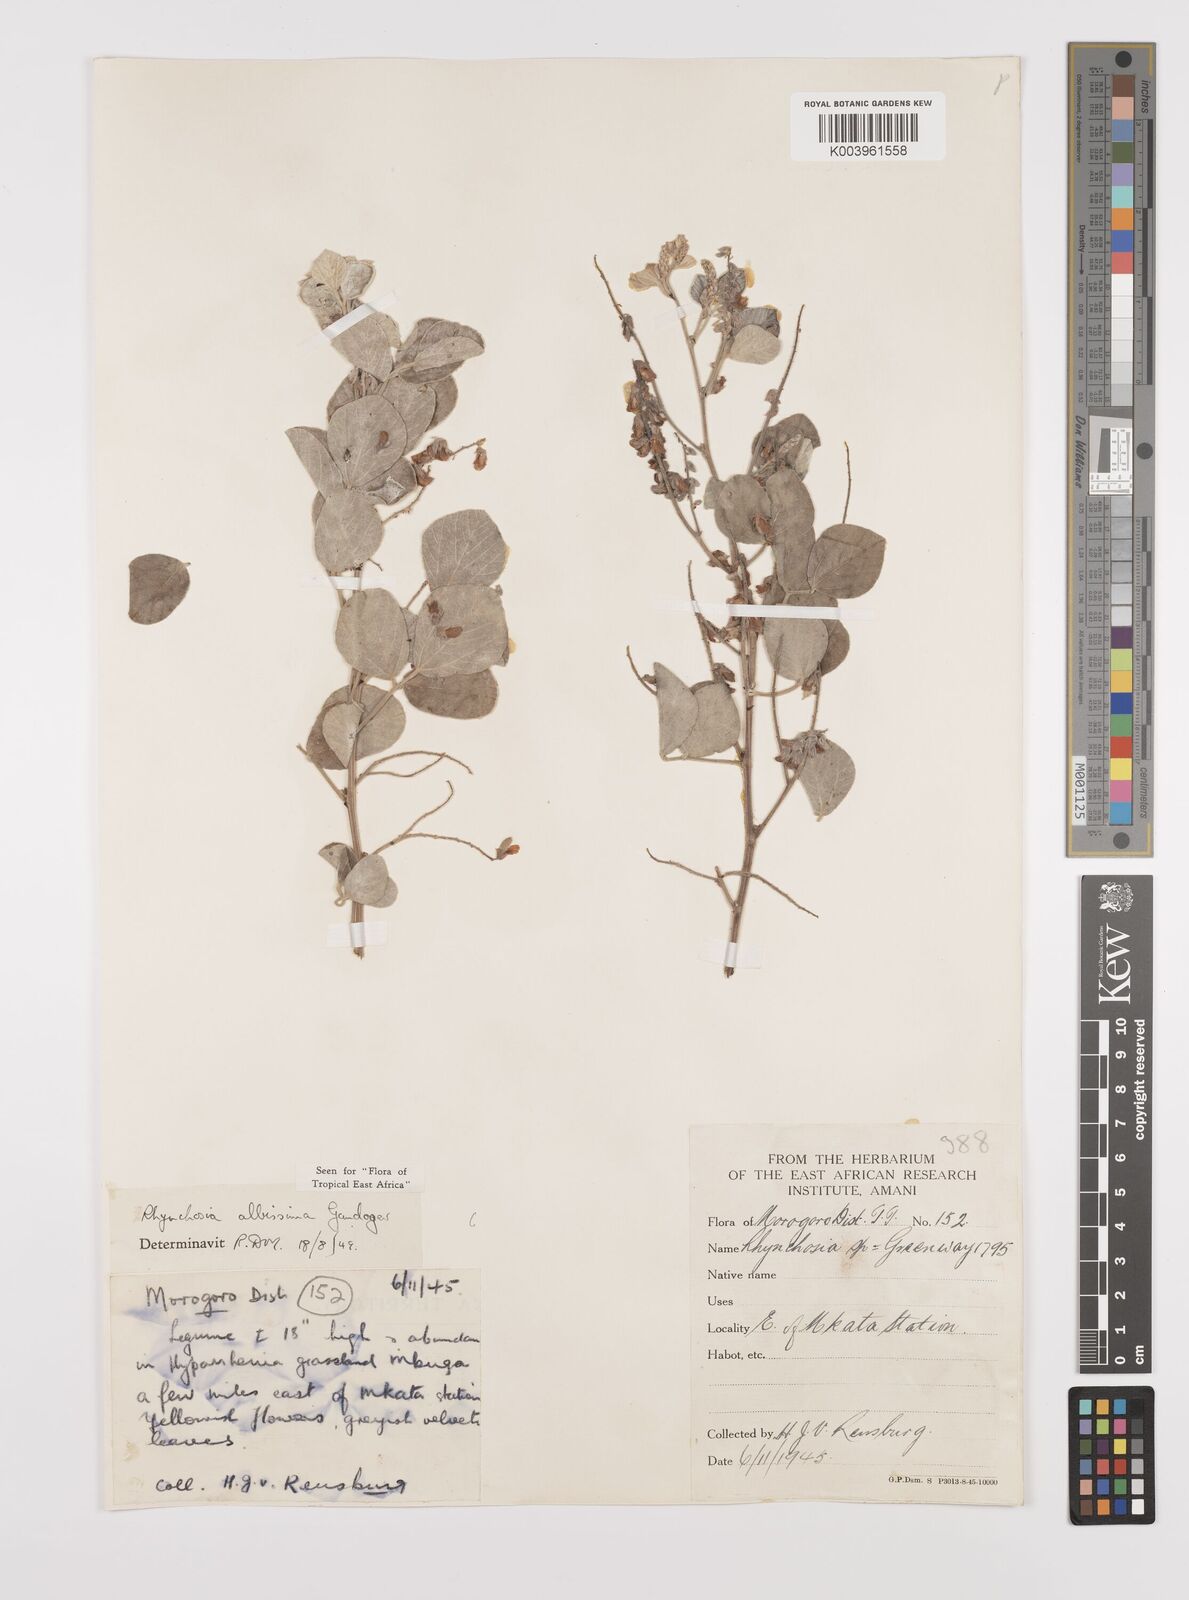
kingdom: Plantae
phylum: Tracheophyta
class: Magnoliopsida
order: Fabales
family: Fabaceae
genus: Rhynchosia
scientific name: Rhynchosia albissima
